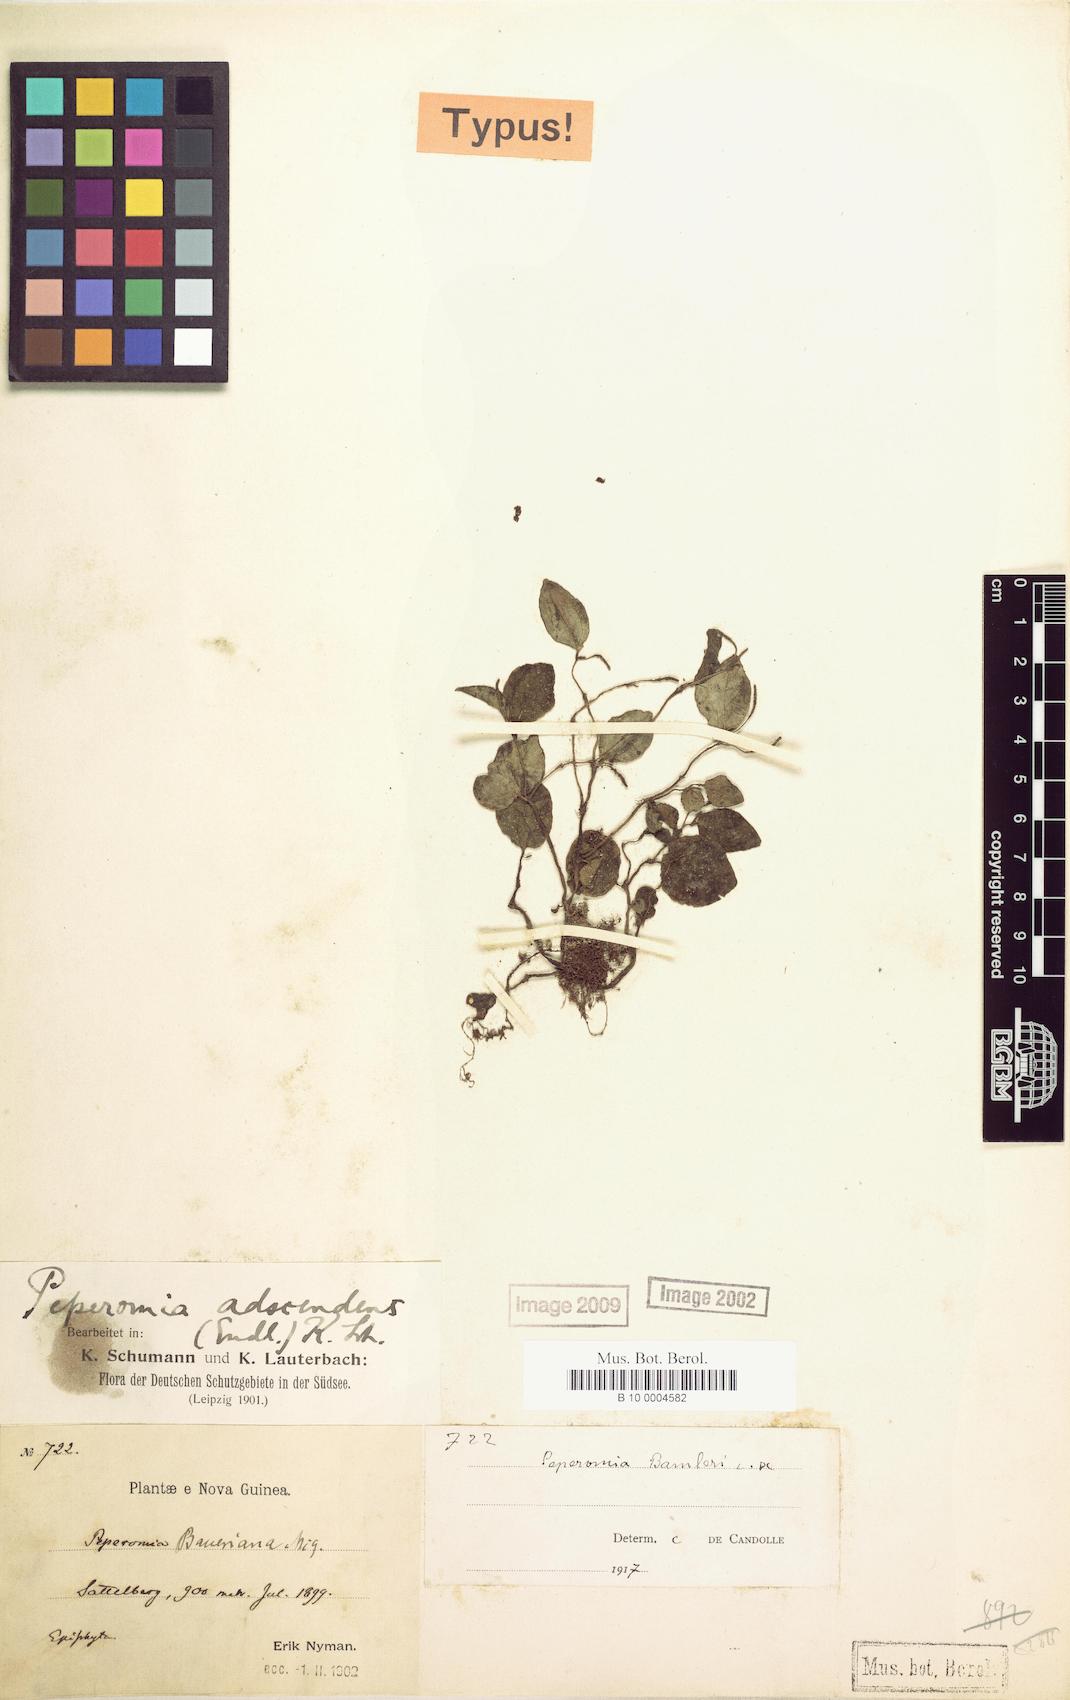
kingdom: Plantae
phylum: Tracheophyta
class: Magnoliopsida
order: Piperales
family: Piperaceae
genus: Peperomia
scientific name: Peperomia bamleri
